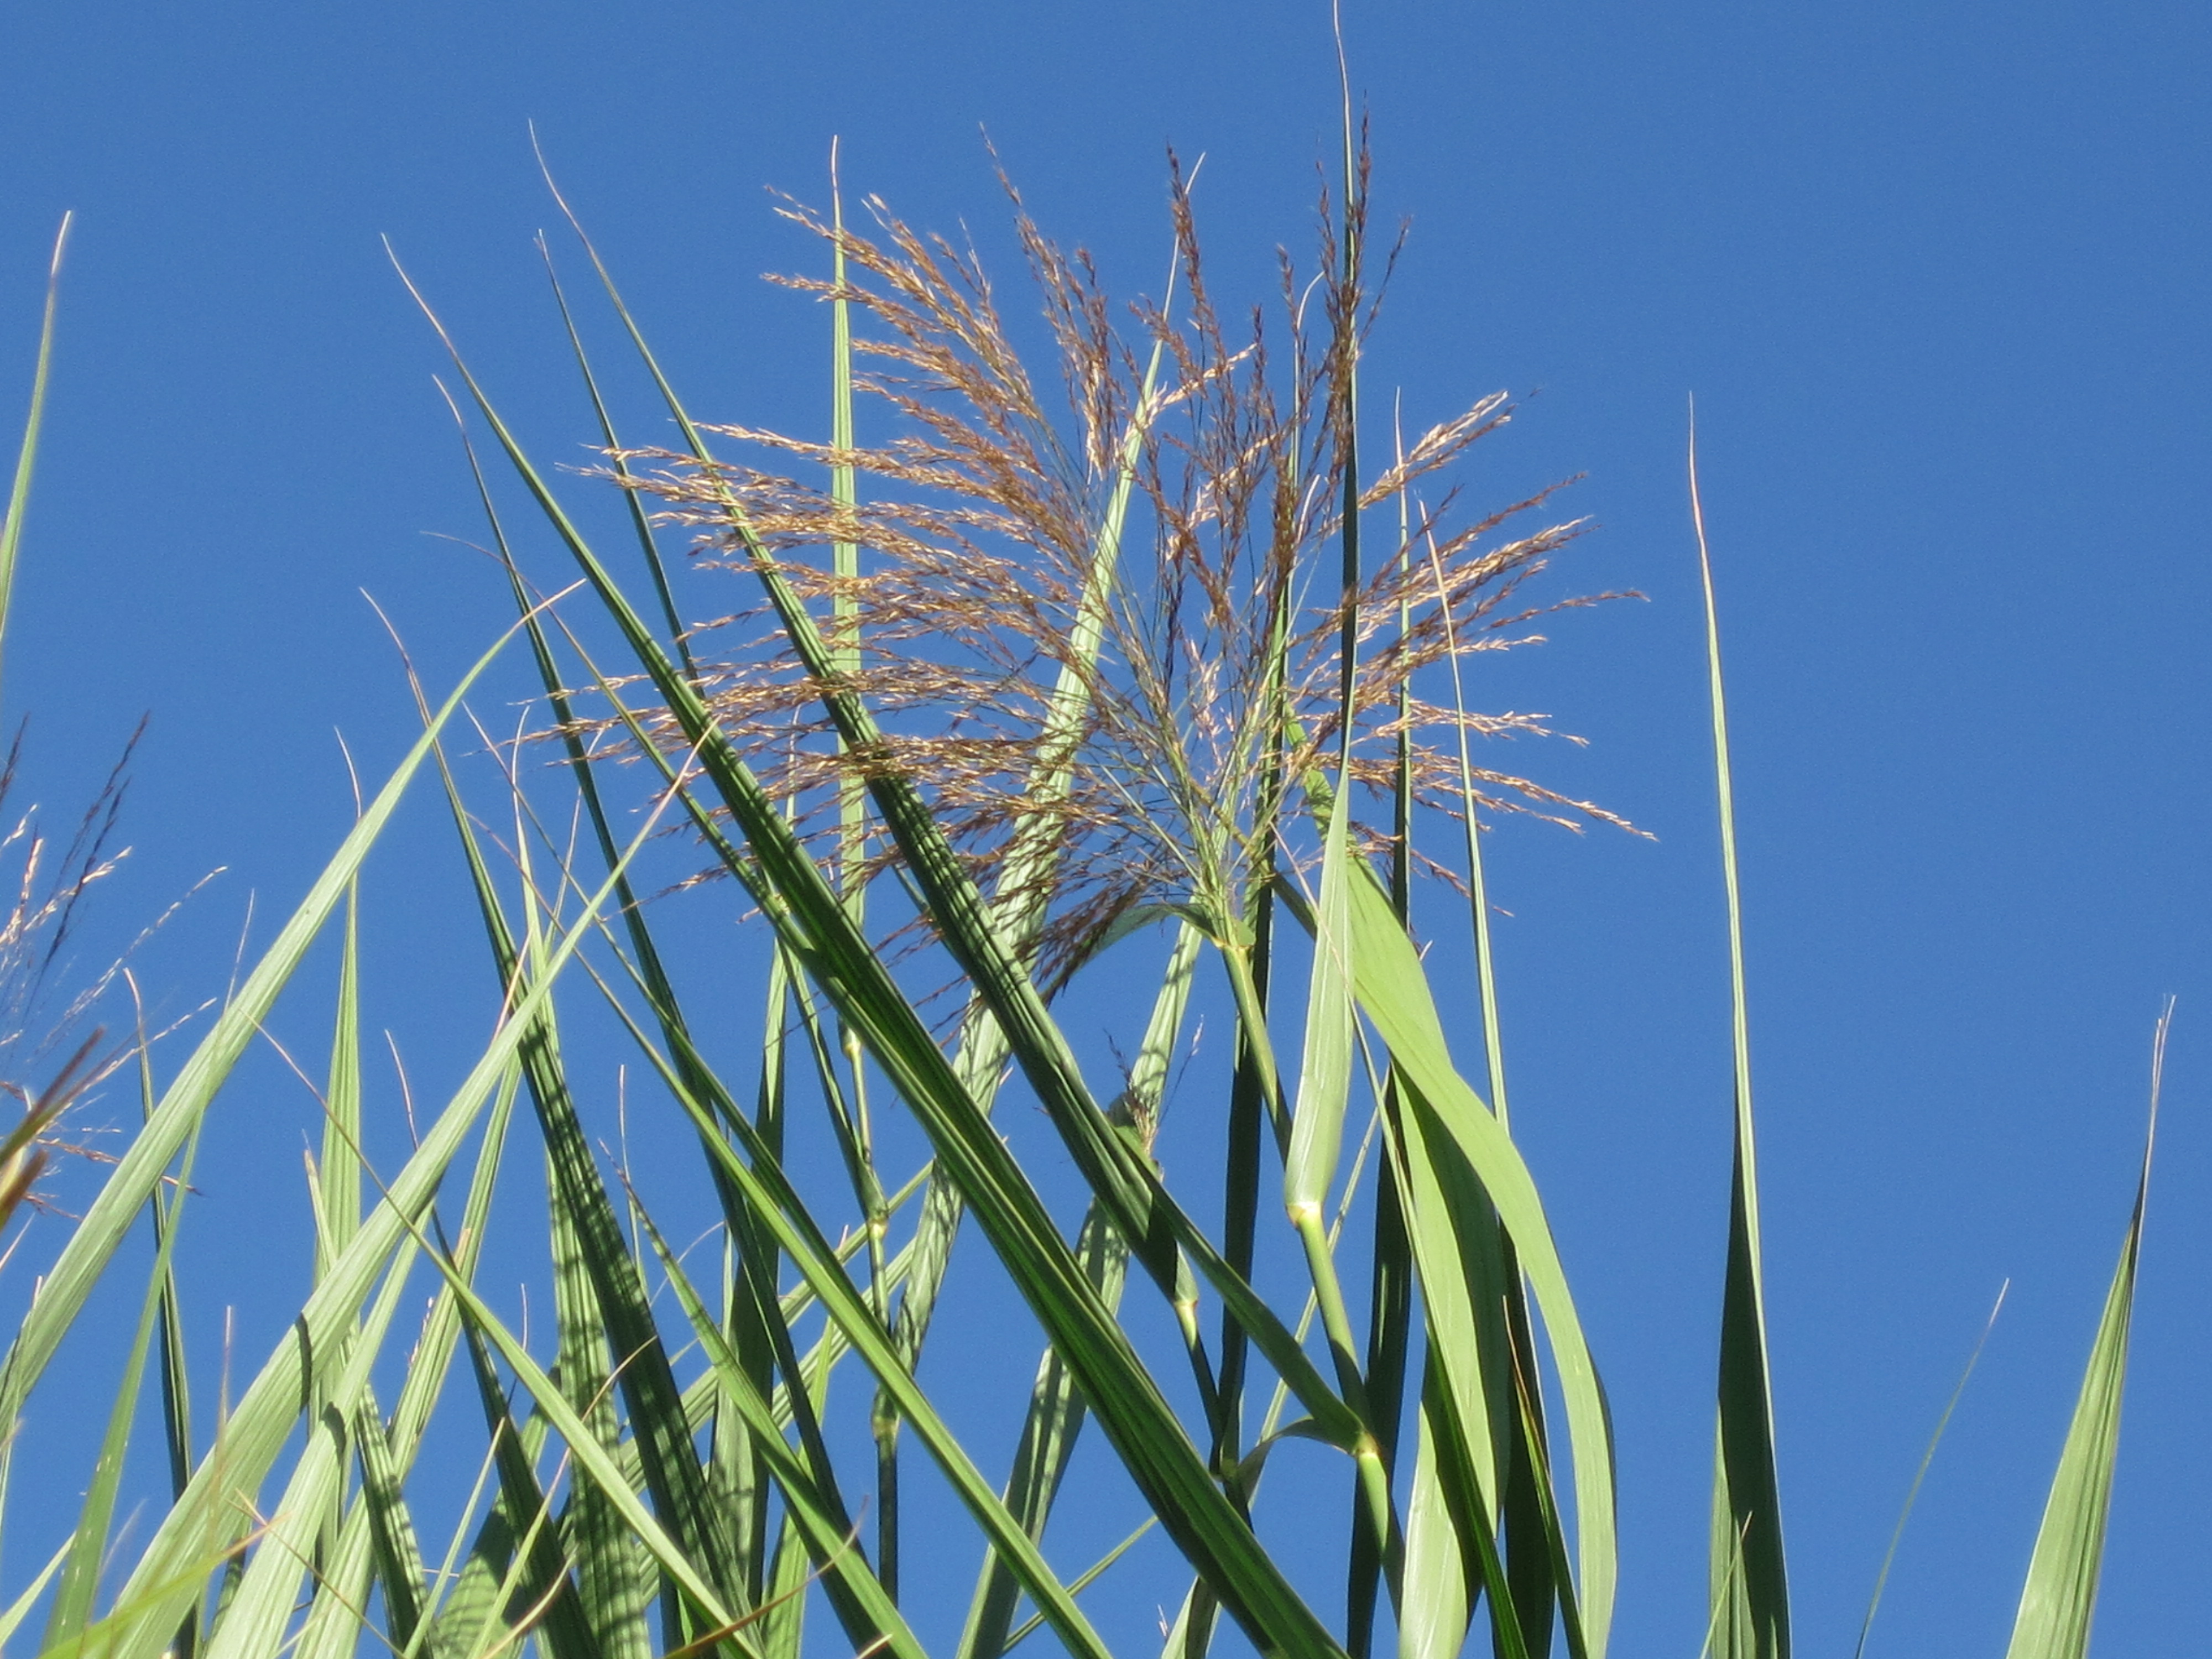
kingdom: Plantae
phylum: Tracheophyta
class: Liliopsida
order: Poales
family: Poaceae
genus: Phragmites
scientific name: Phragmites karka
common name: Tropical reed
